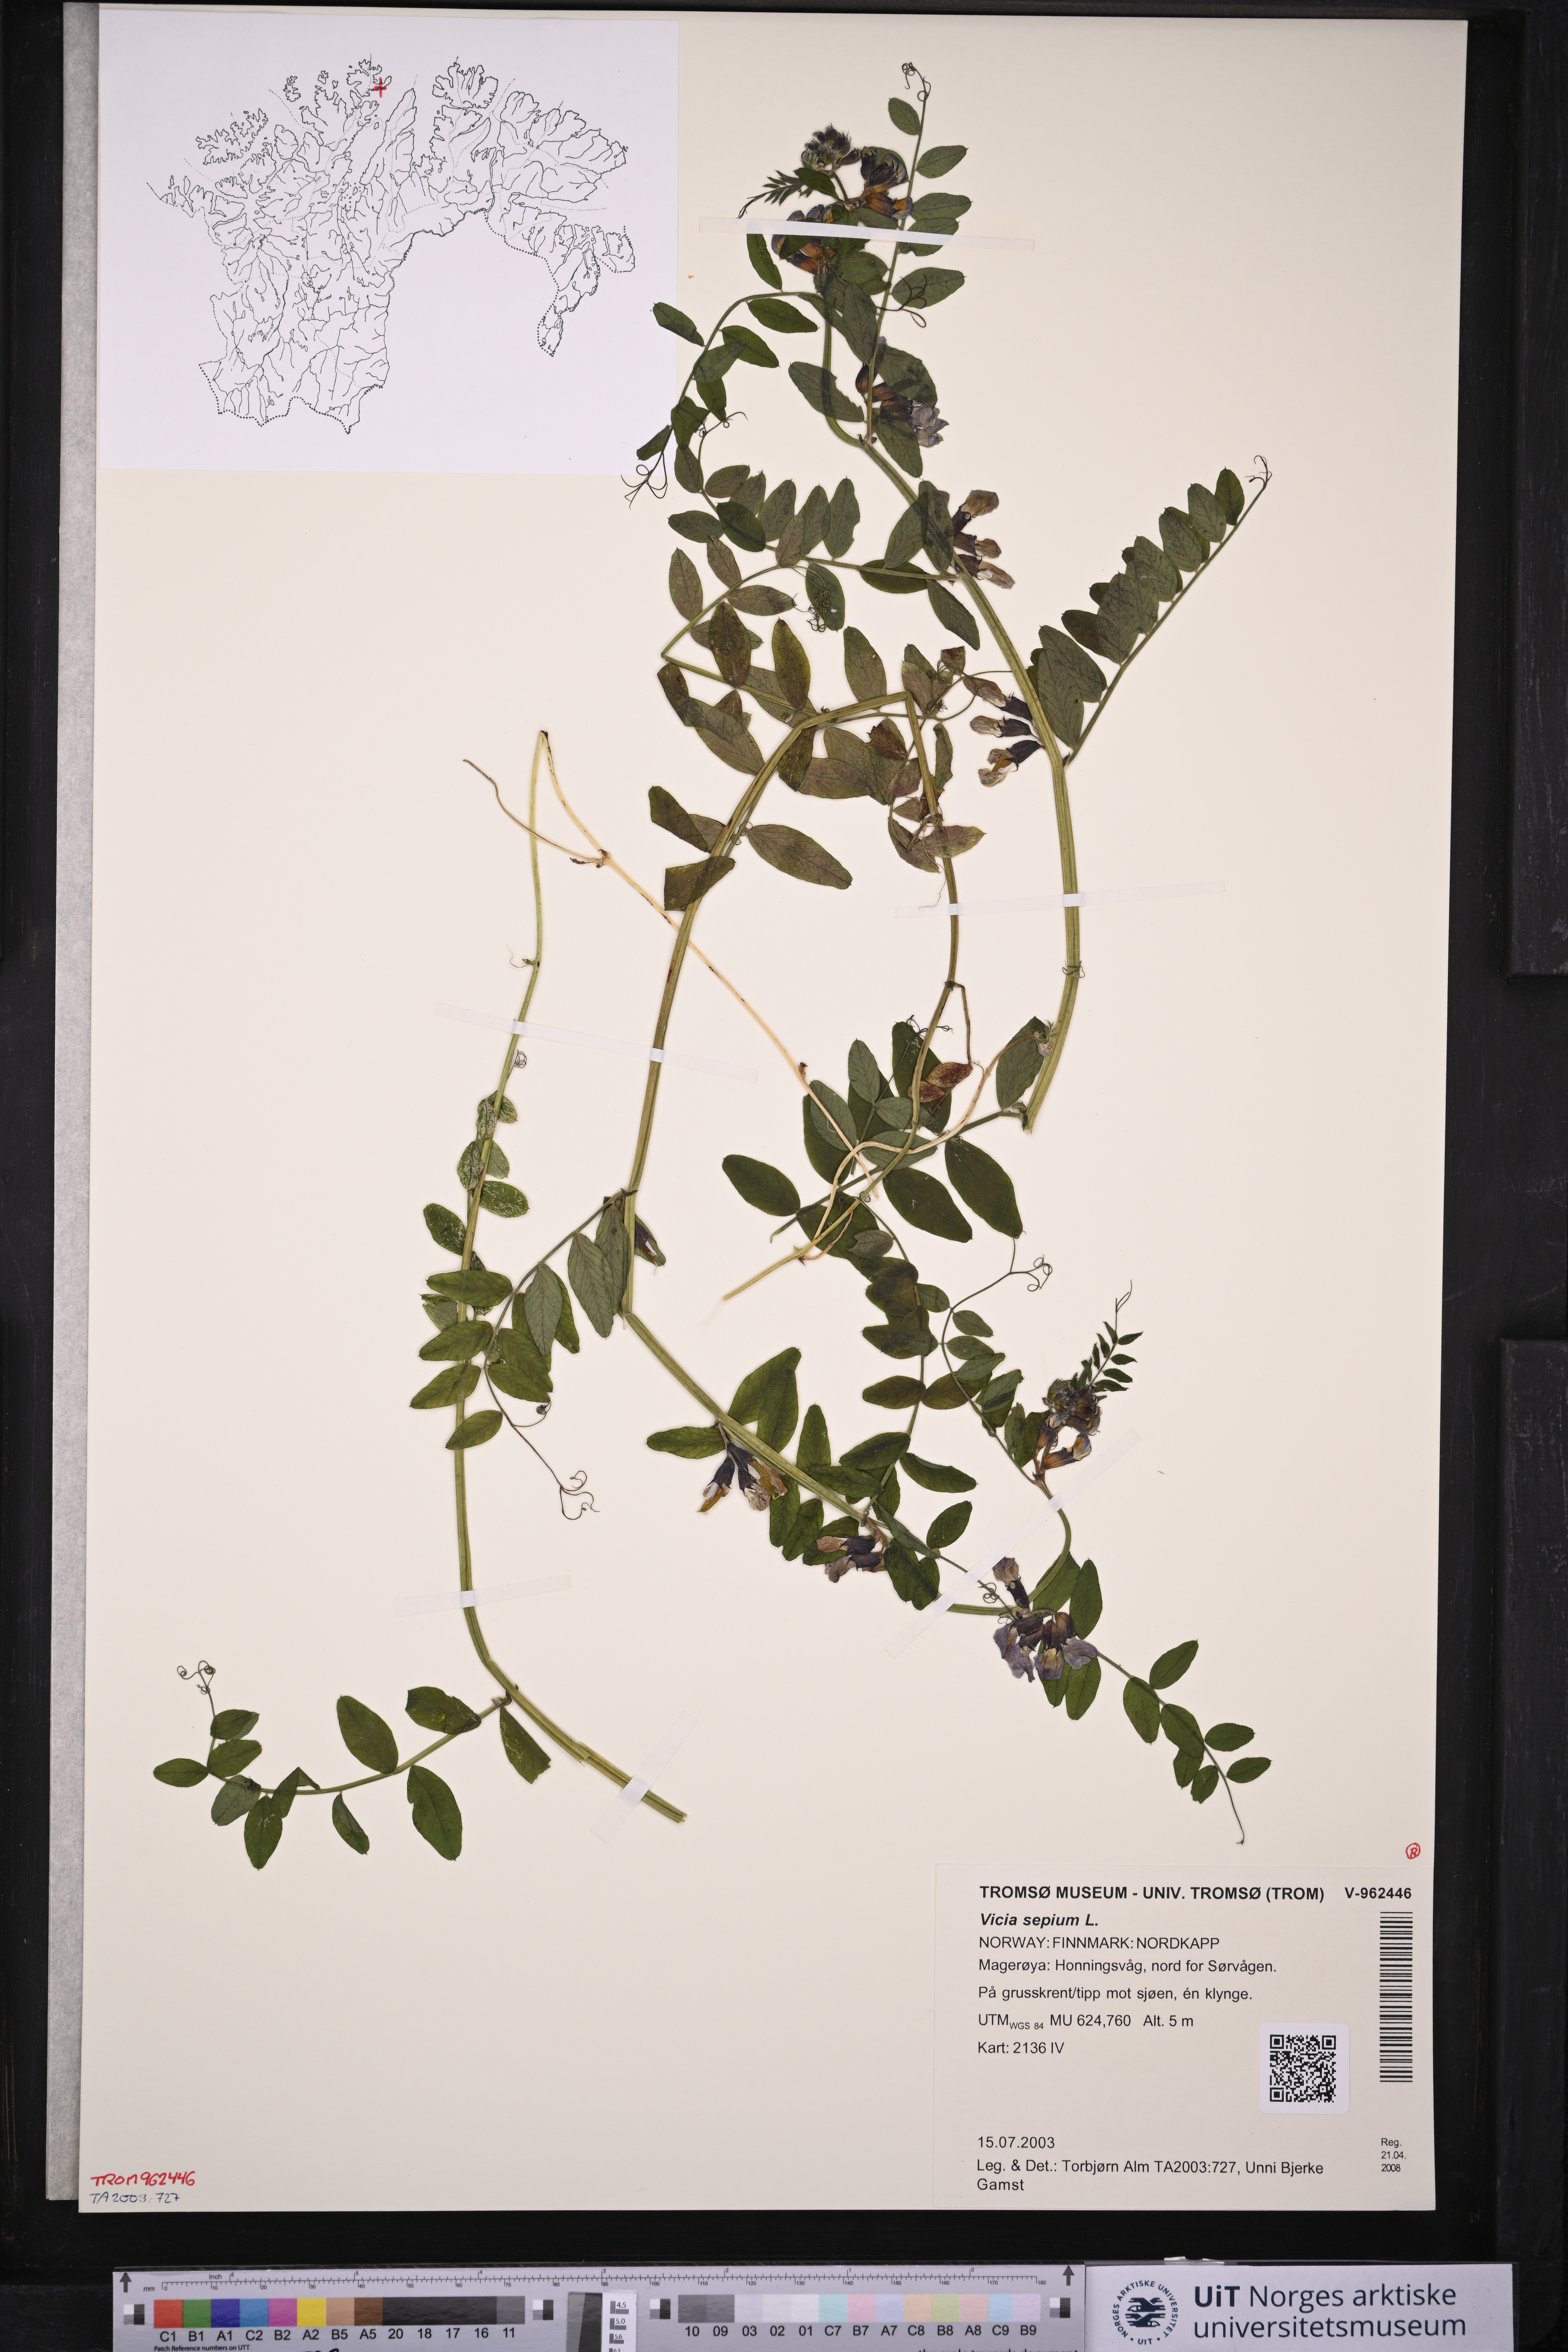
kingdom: Plantae
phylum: Tracheophyta
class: Magnoliopsida
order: Fabales
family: Fabaceae
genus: Vicia
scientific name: Vicia sepium
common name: Bush vetch
